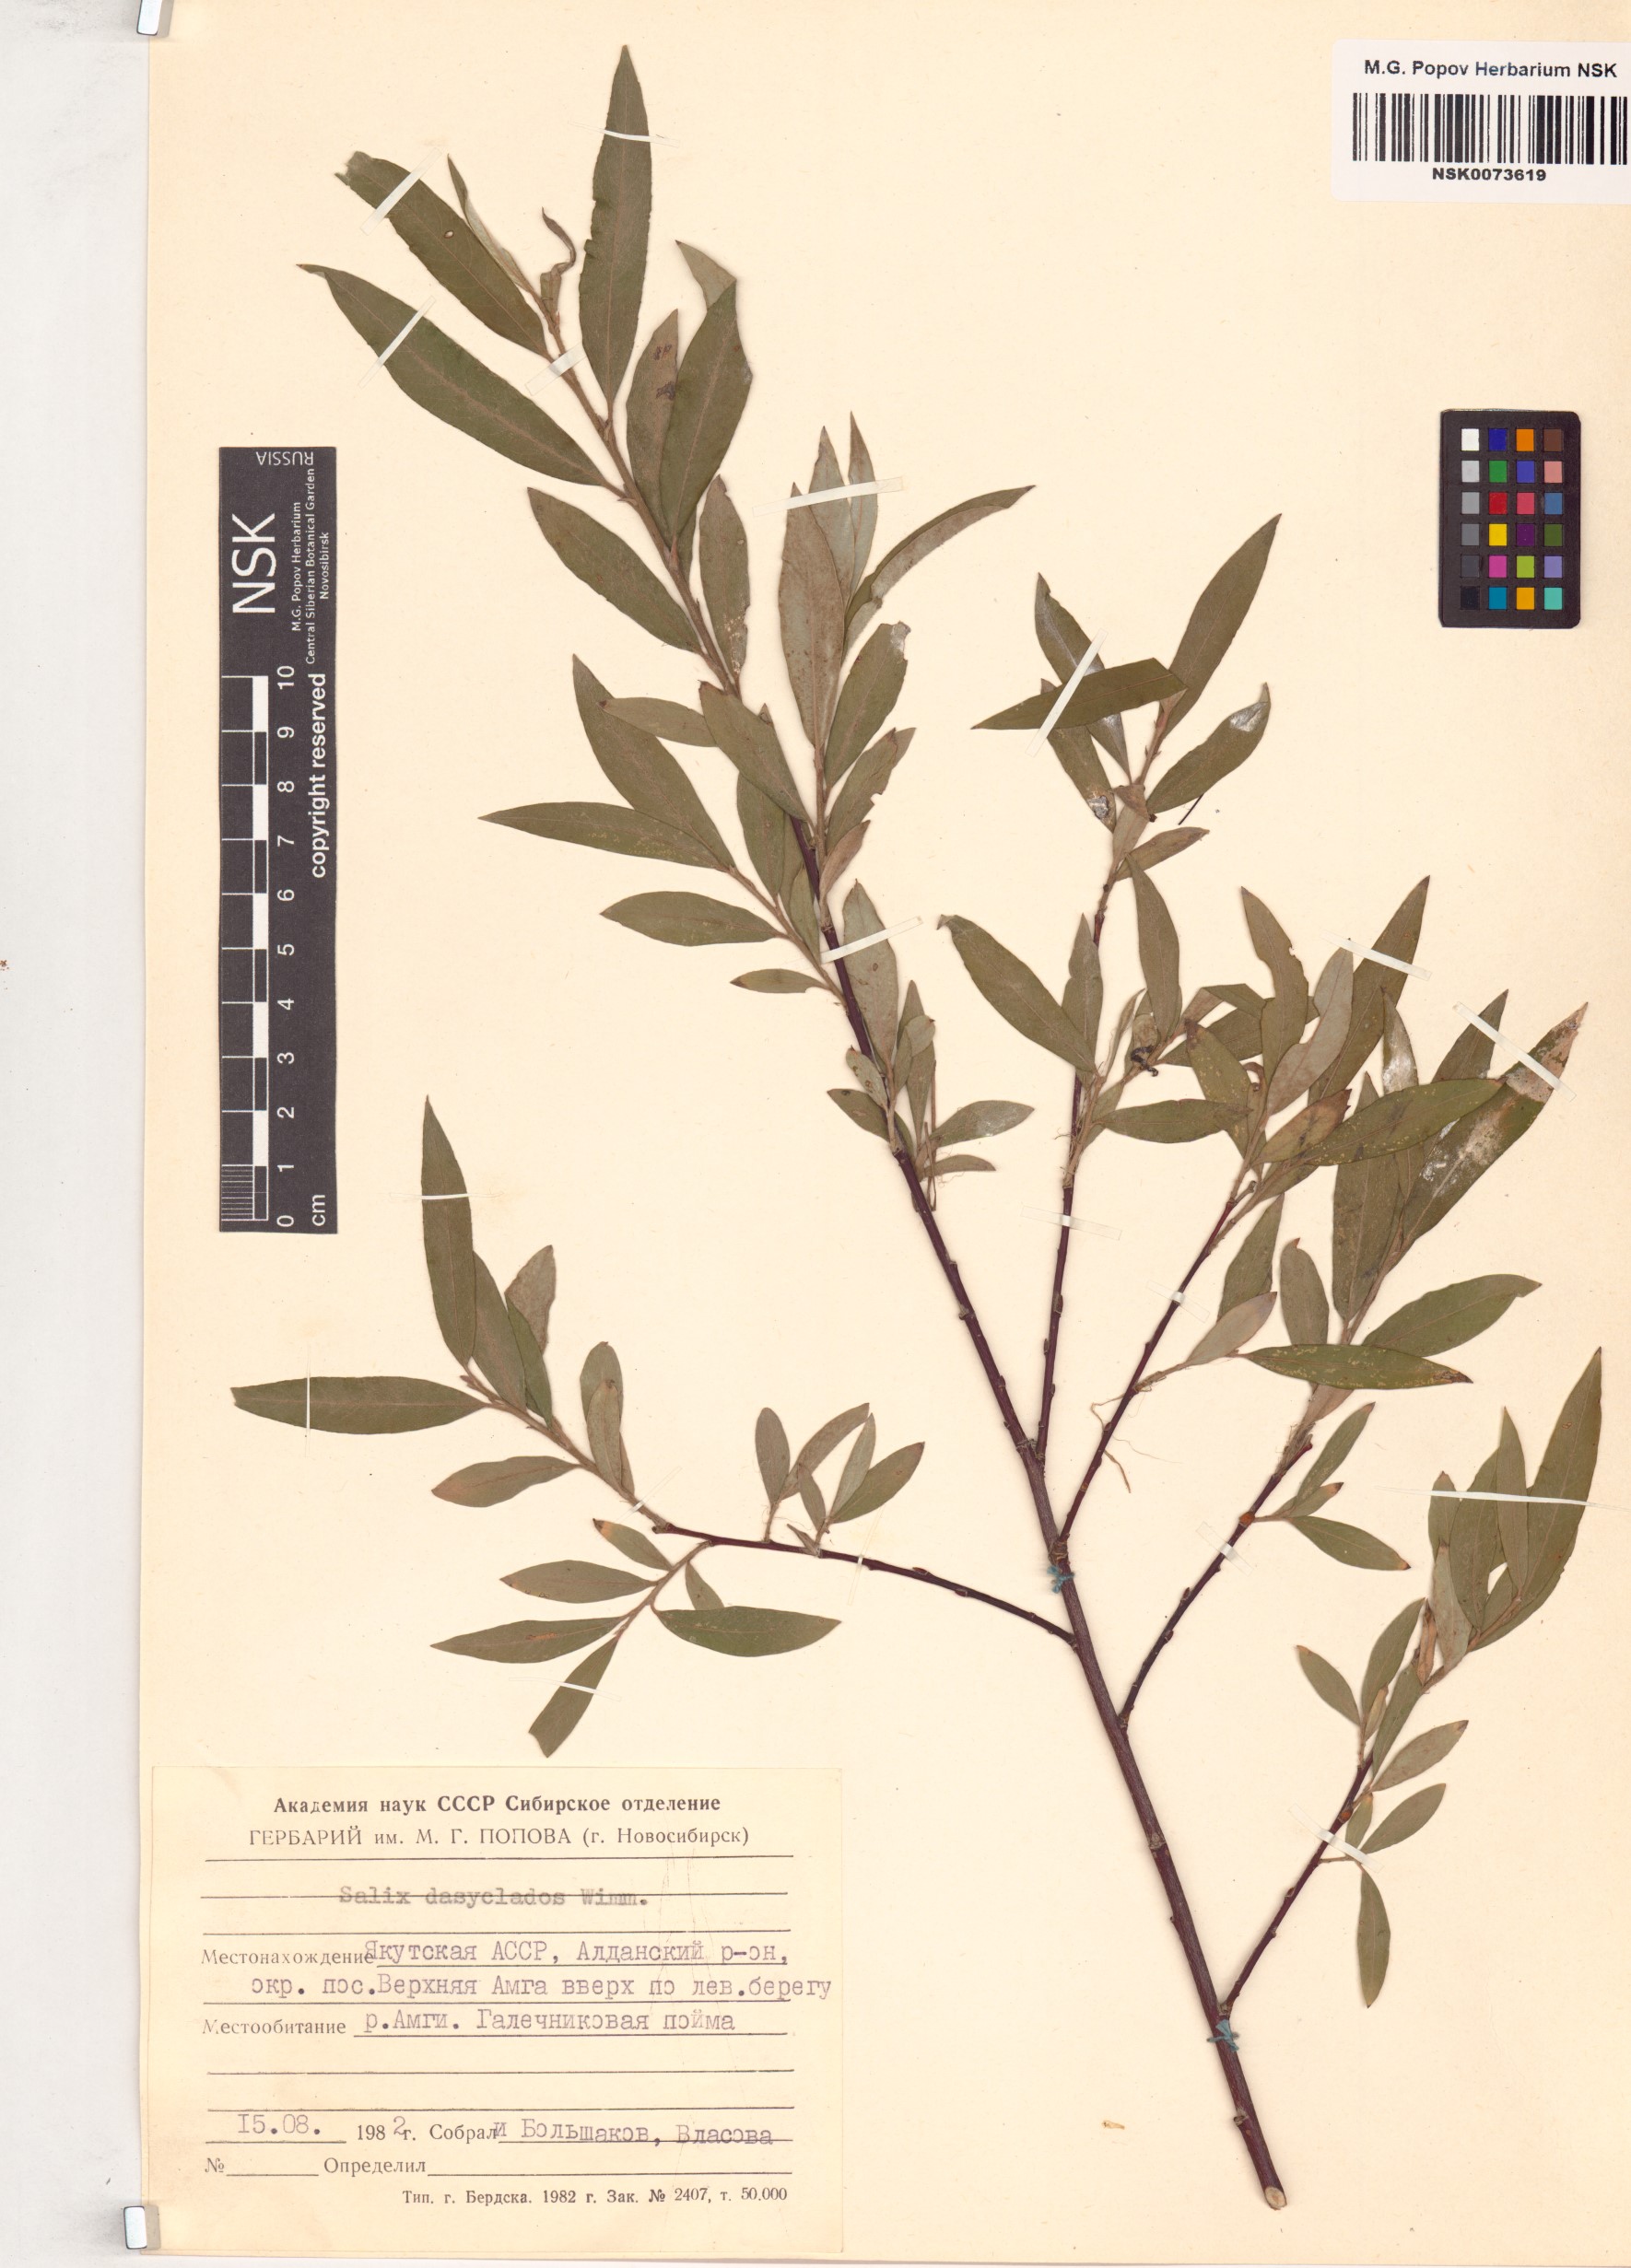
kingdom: Plantae
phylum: Tracheophyta
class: Magnoliopsida
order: Malpighiales
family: Salicaceae
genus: Salix
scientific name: Salix gmelinii
